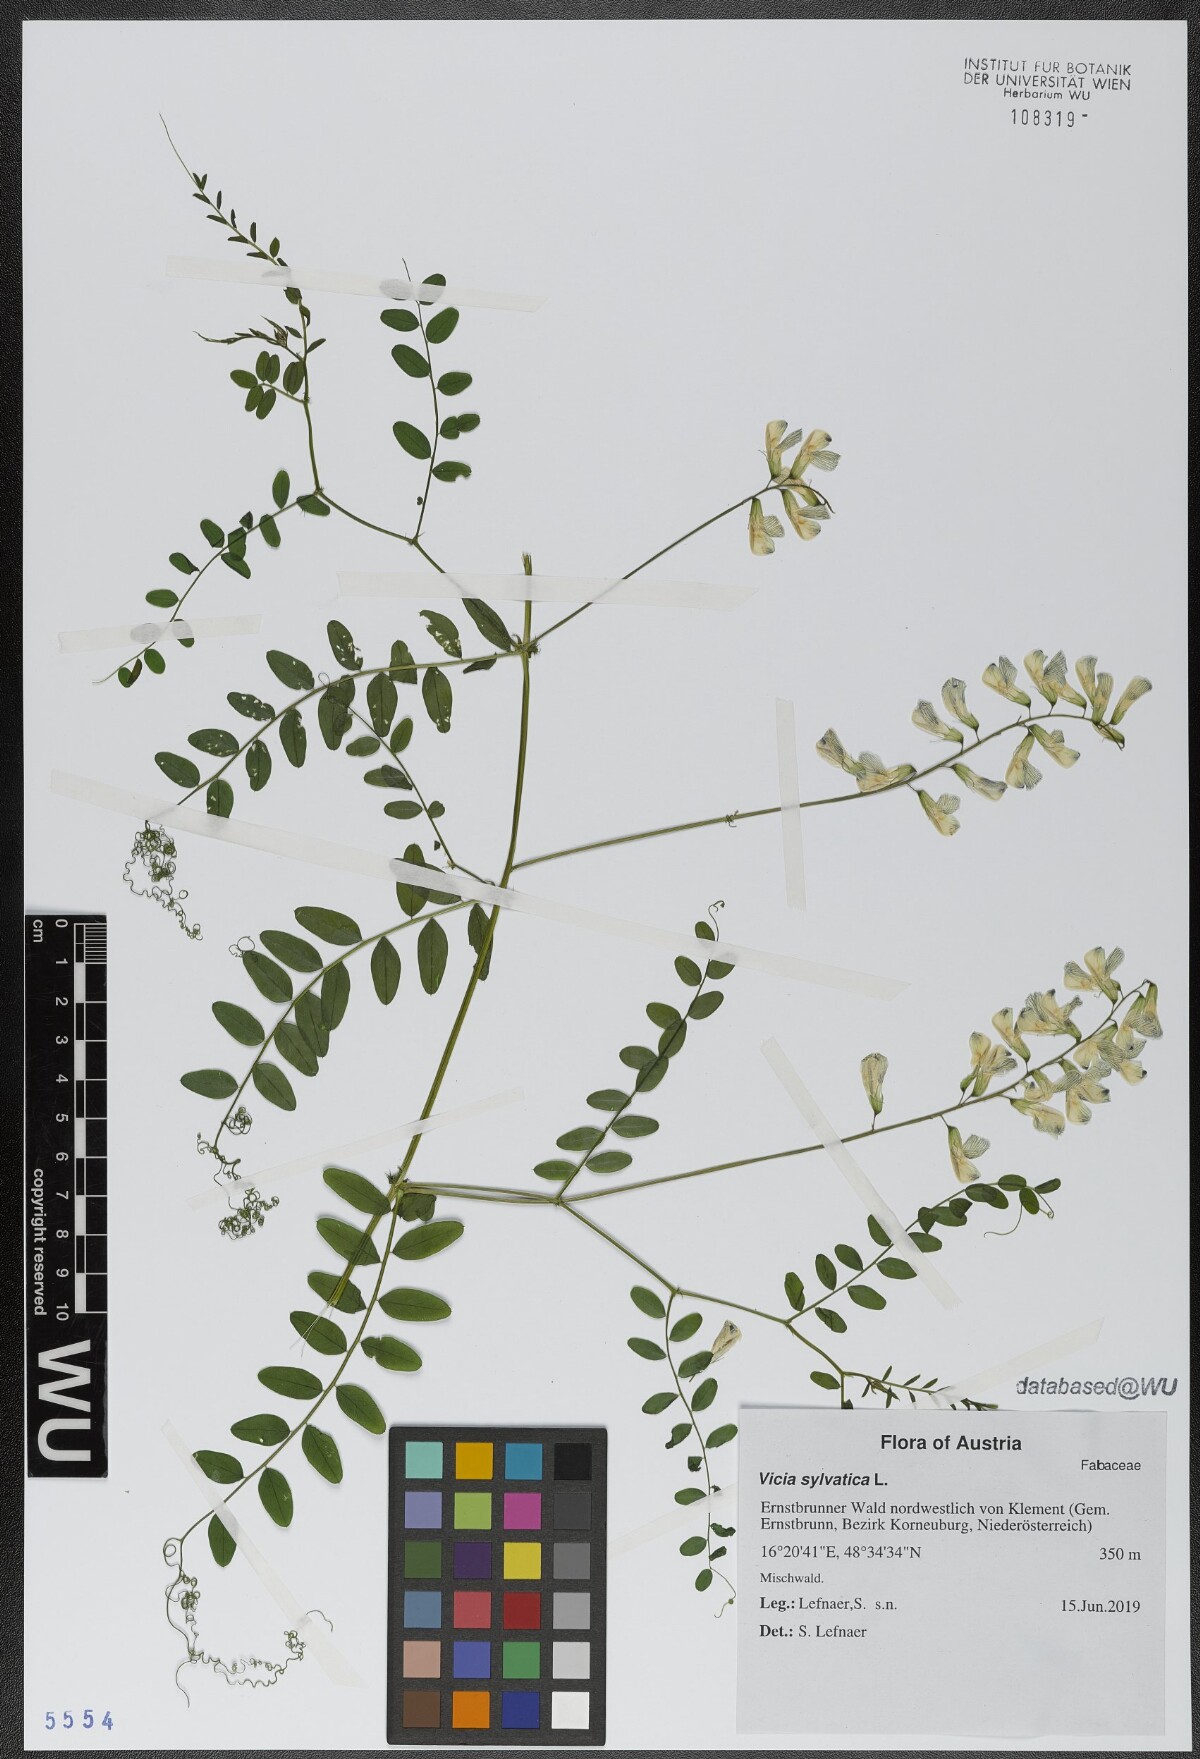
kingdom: Plantae
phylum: Tracheophyta
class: Magnoliopsida
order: Fabales
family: Fabaceae
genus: Vicia
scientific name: Vicia sylvatica
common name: Wood vetch
